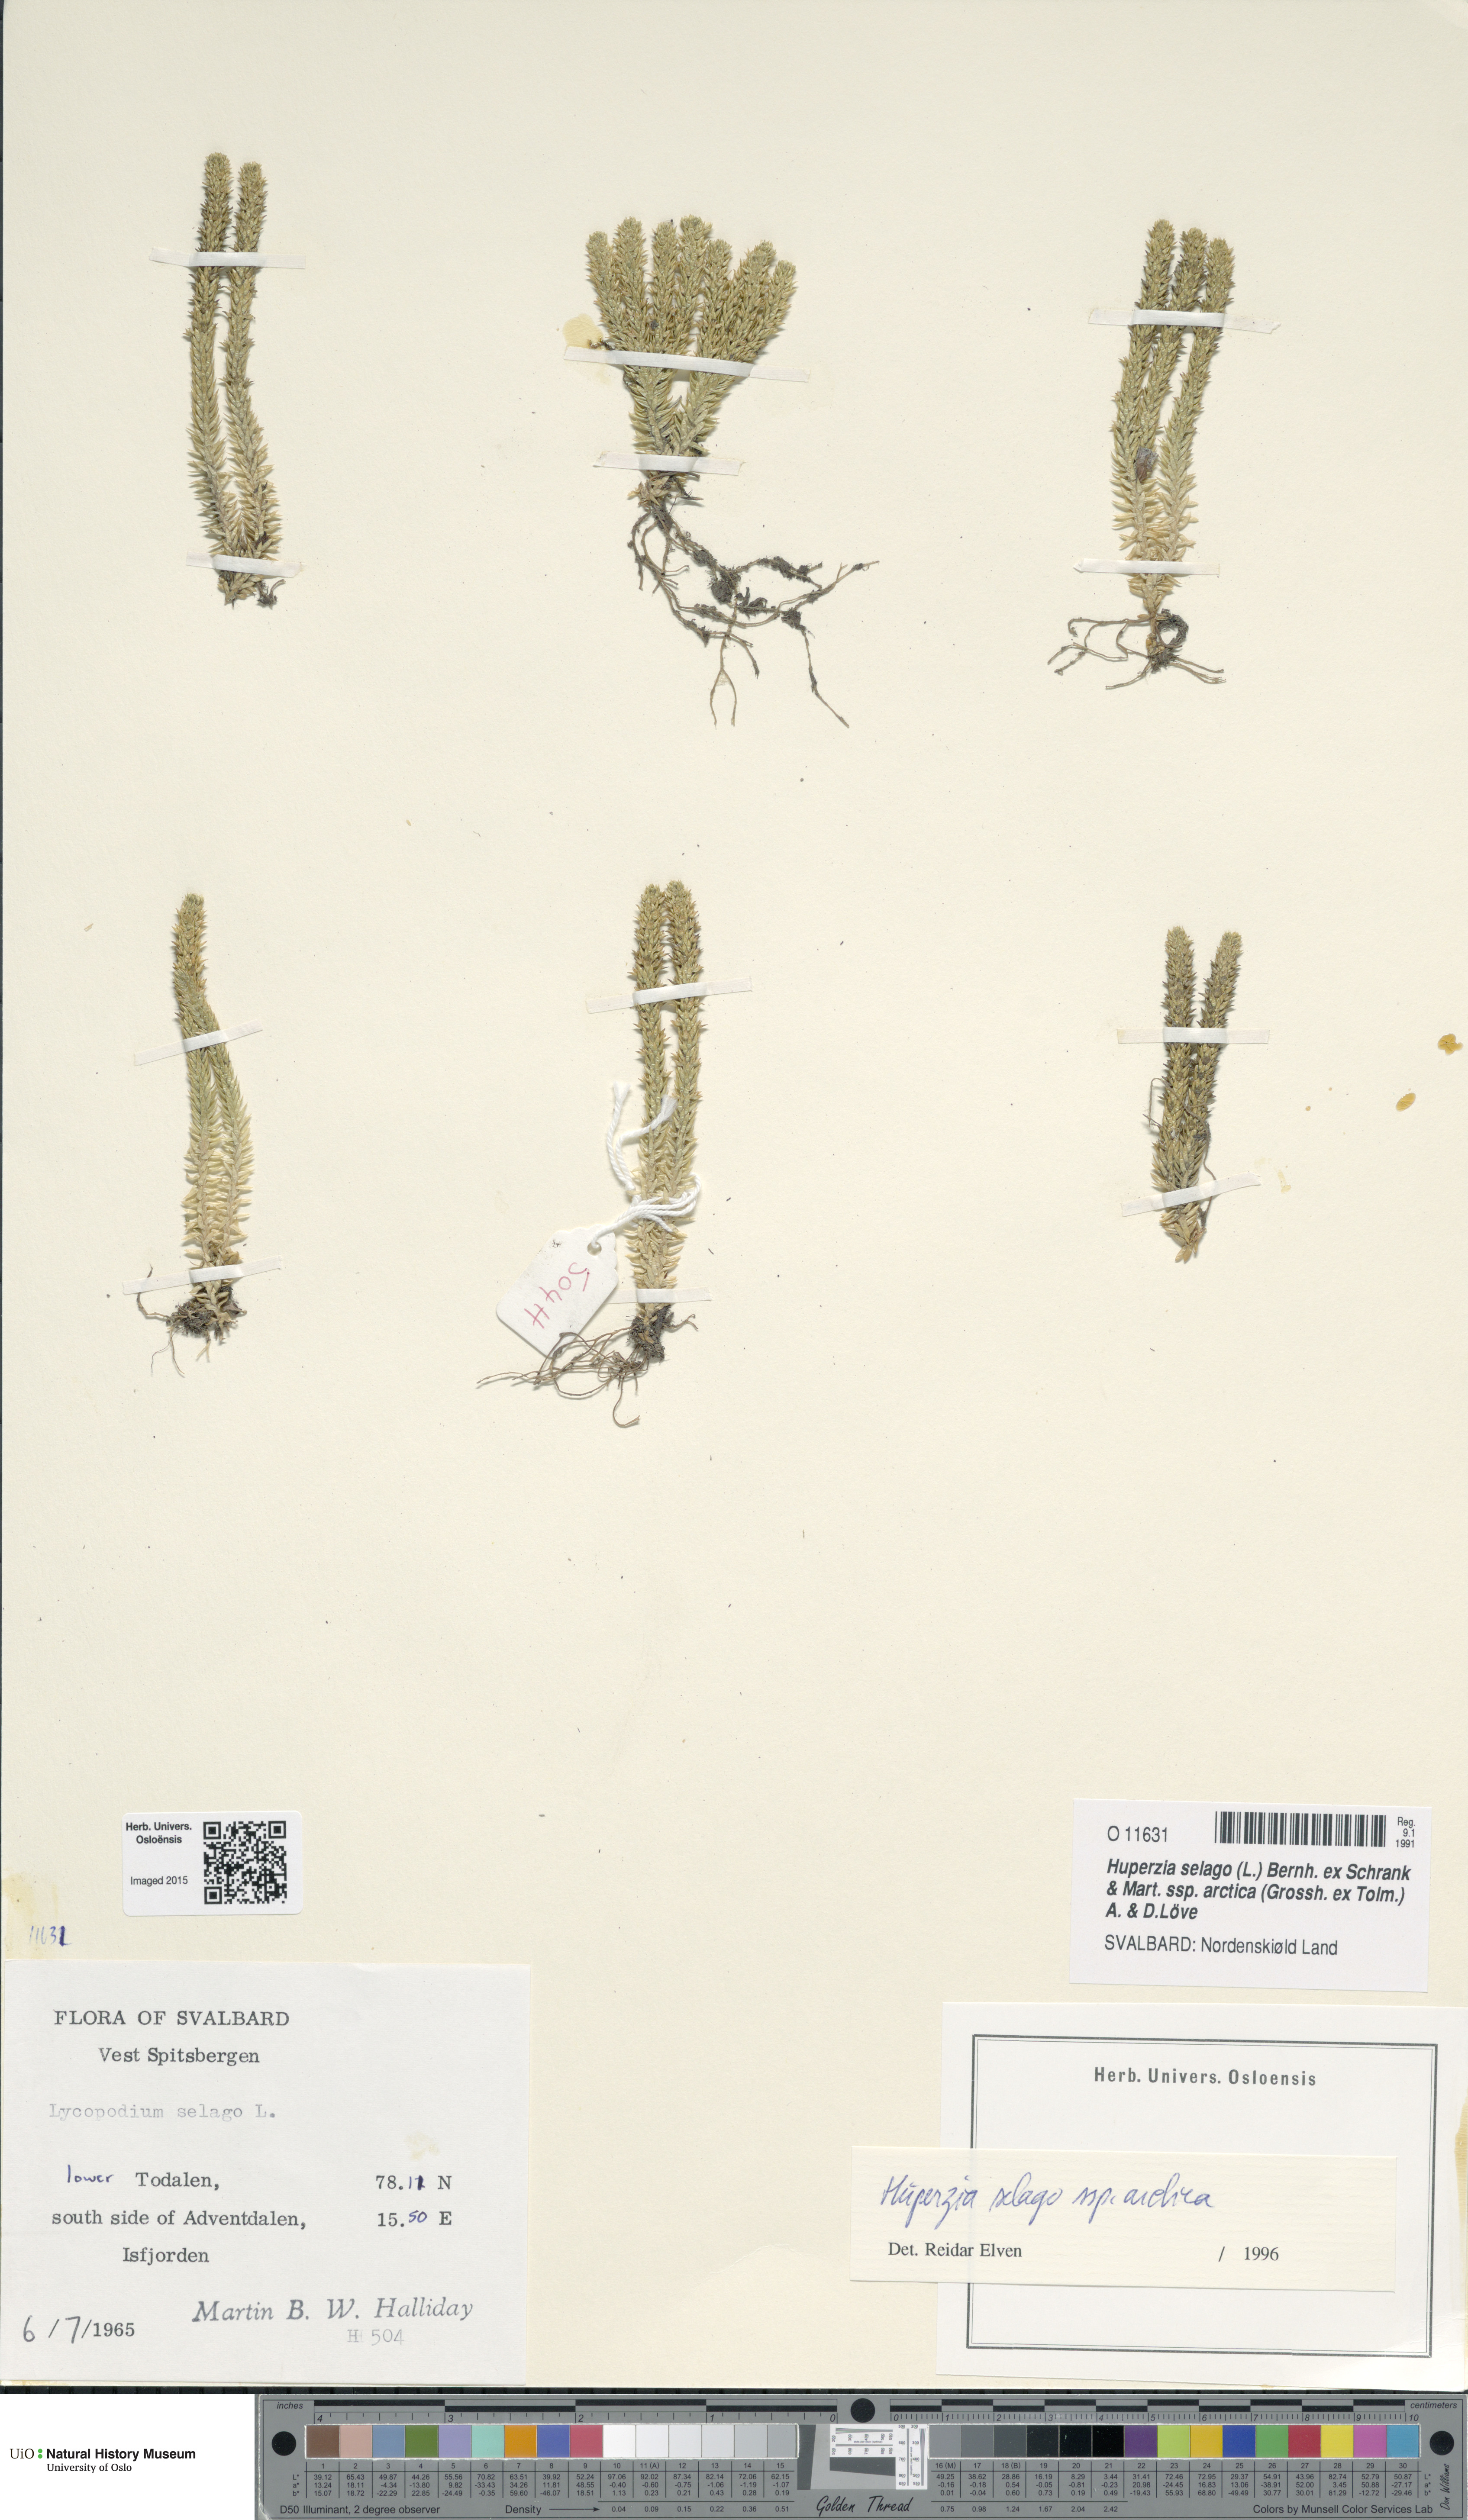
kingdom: Plantae
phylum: Tracheophyta
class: Lycopodiopsida
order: Lycopodiales
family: Lycopodiaceae
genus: Huperzia
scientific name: Huperzia selago
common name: Northern firmoss
